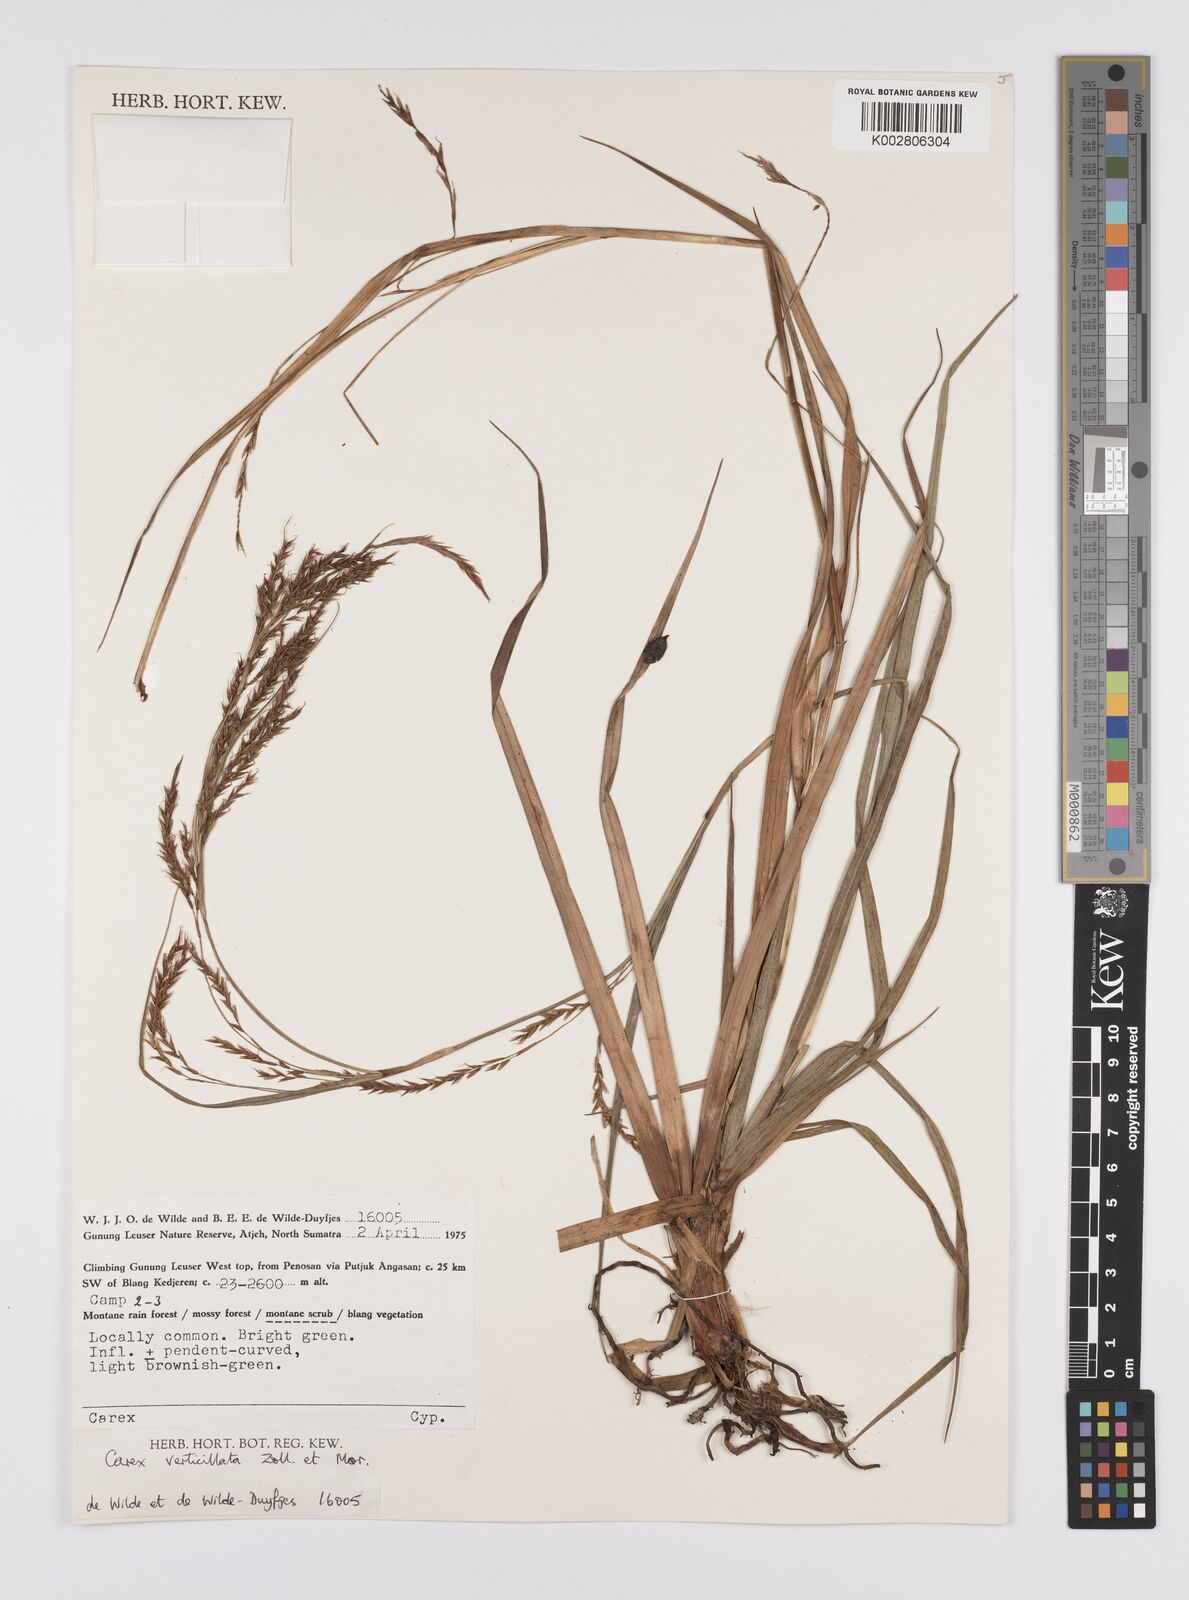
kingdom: Plantae
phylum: Tracheophyta
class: Liliopsida
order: Poales
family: Cyperaceae
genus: Carex
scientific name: Carex verticillata
